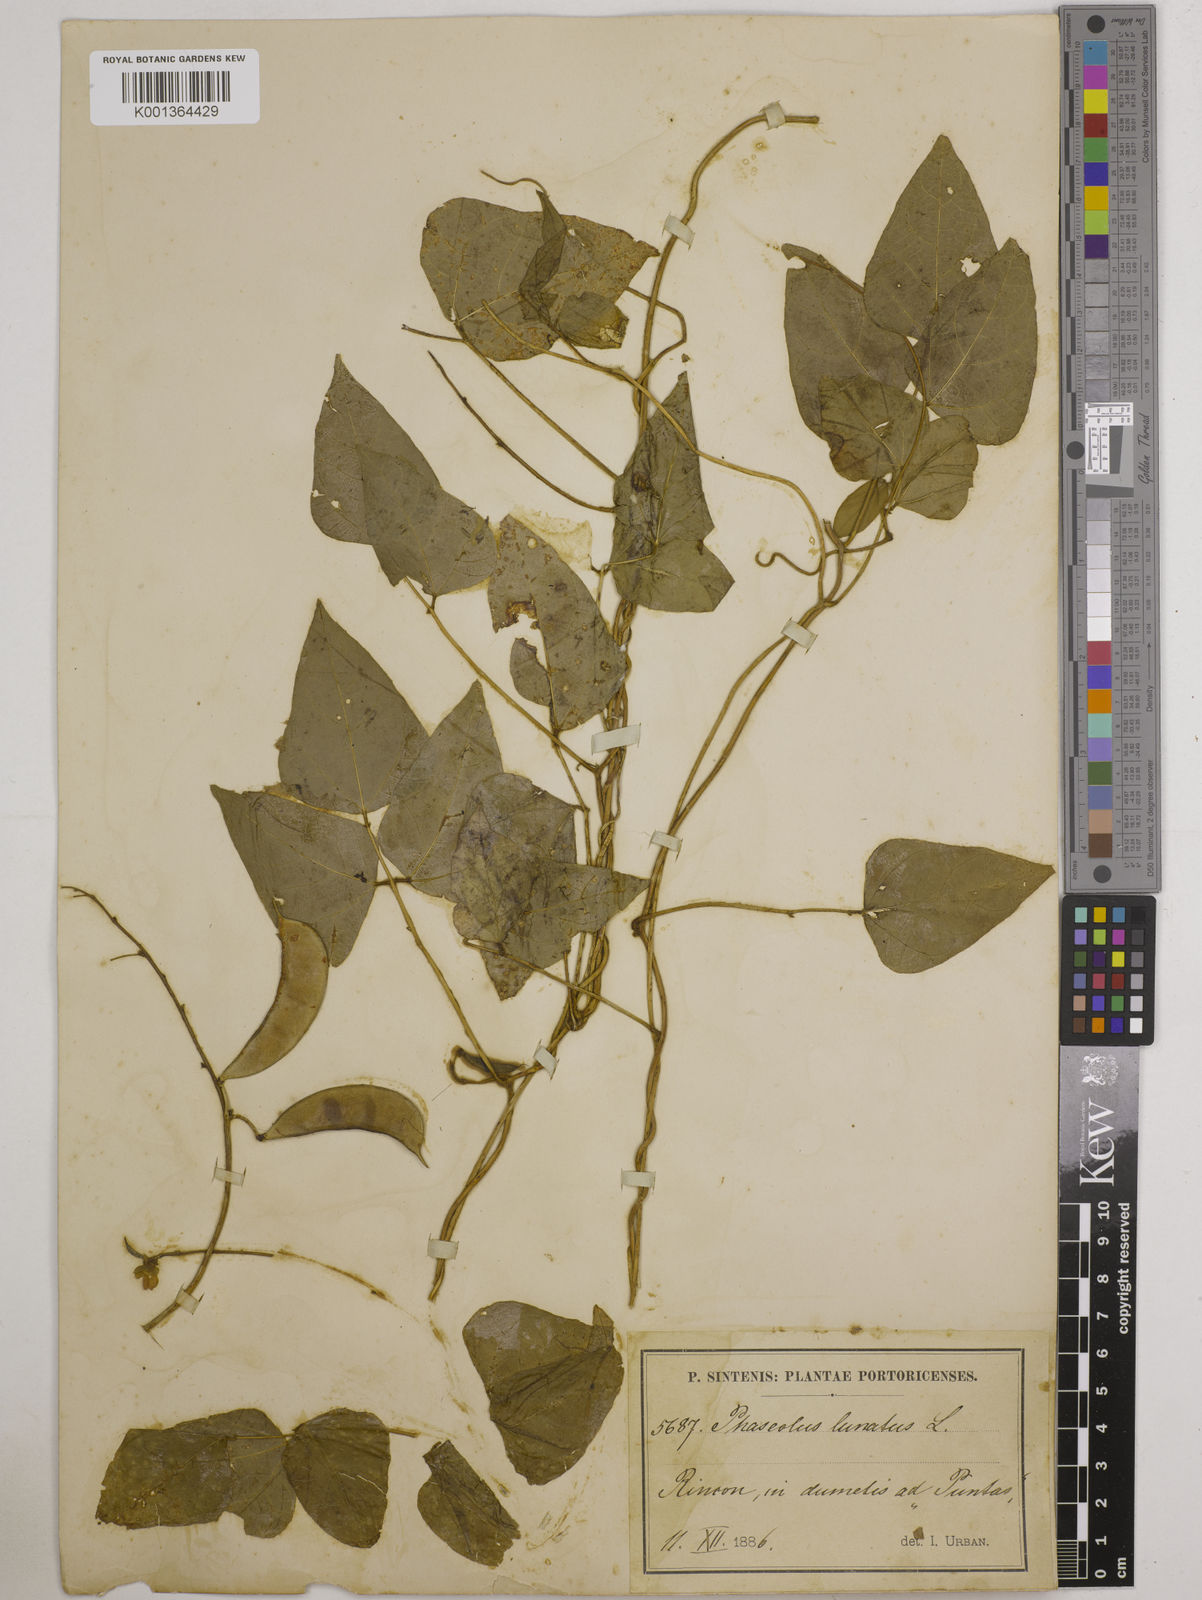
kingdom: Plantae
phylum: Tracheophyta
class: Magnoliopsida
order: Fabales
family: Fabaceae
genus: Phaseolus
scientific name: Phaseolus lunatus
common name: Sieva bean
